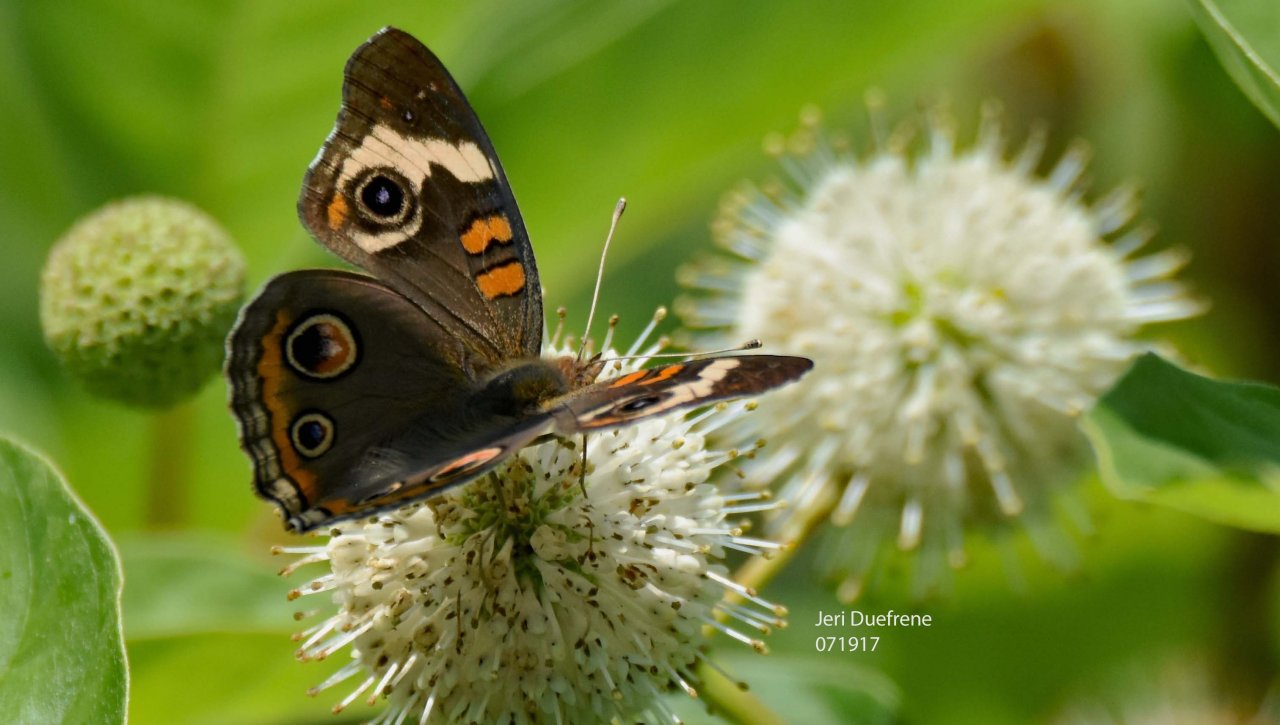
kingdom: Animalia
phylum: Arthropoda
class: Insecta
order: Lepidoptera
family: Nymphalidae
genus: Junonia
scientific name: Junonia coenia
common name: Common Buckeye
